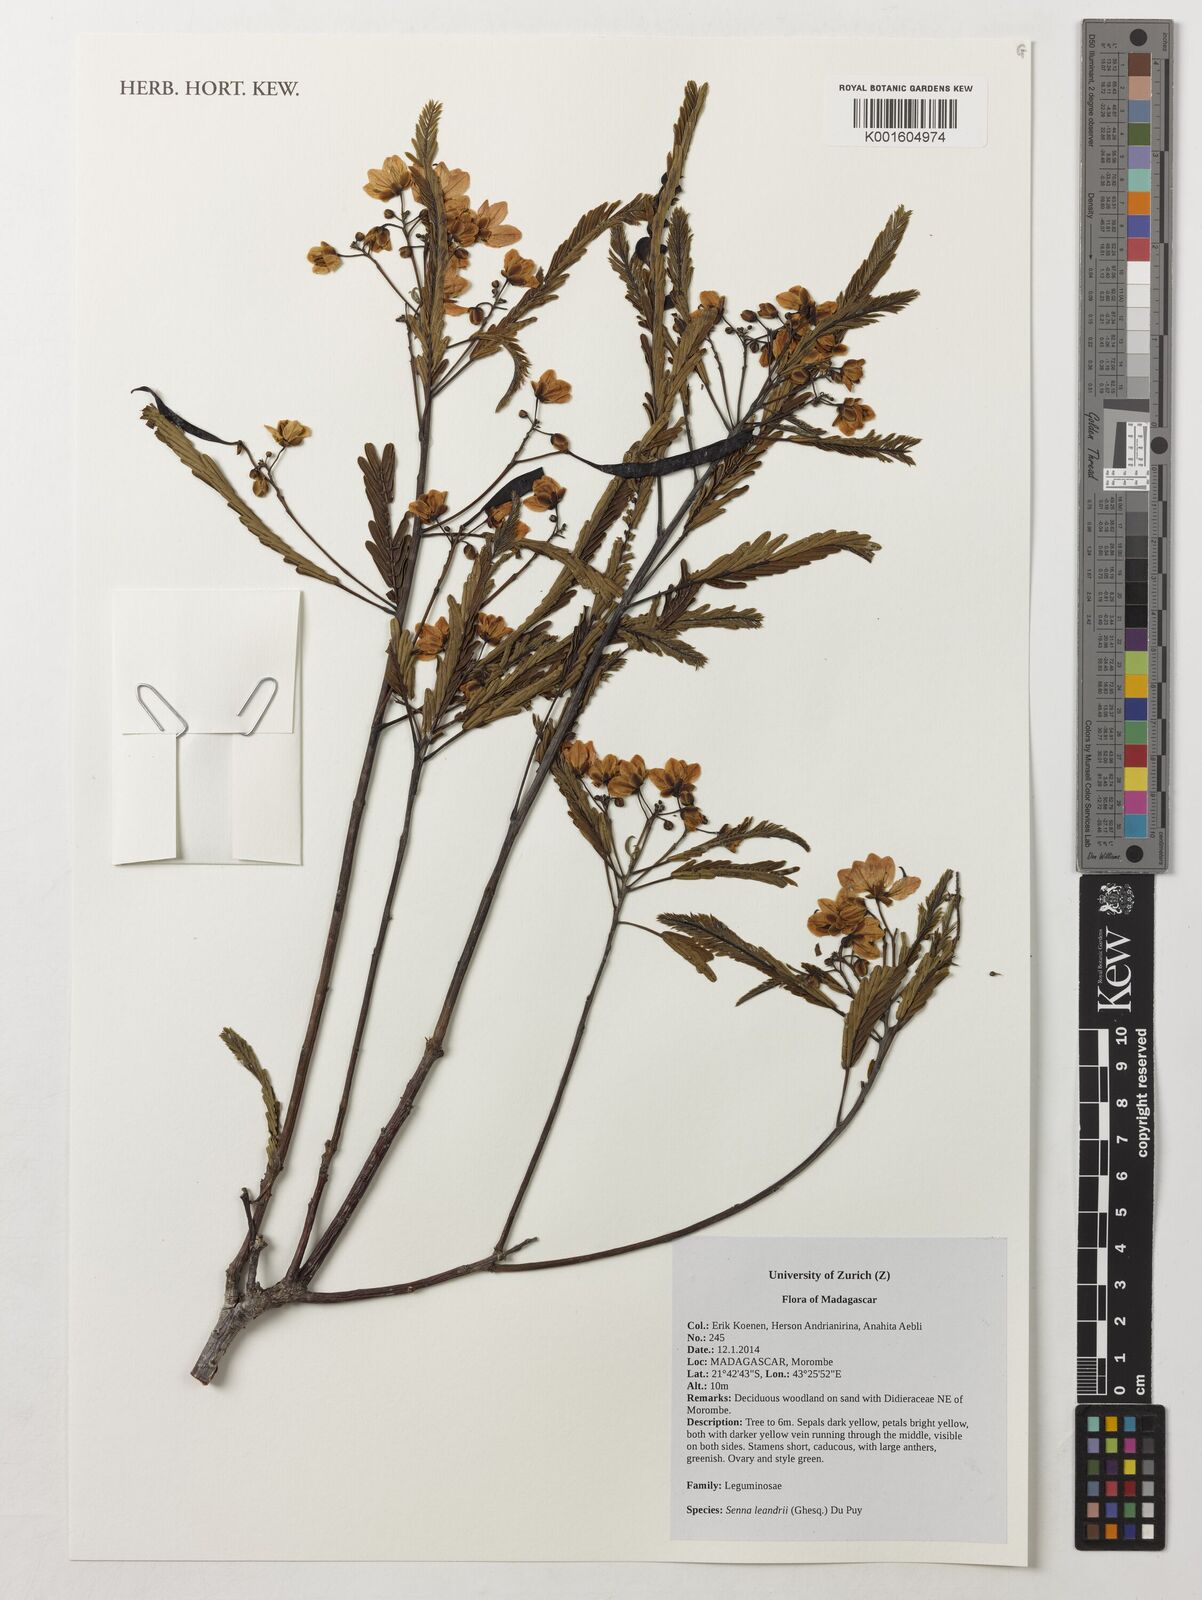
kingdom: Plantae
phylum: Tracheophyta
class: Magnoliopsida
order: Fabales
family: Fabaceae
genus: Senna
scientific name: Senna leandrii
